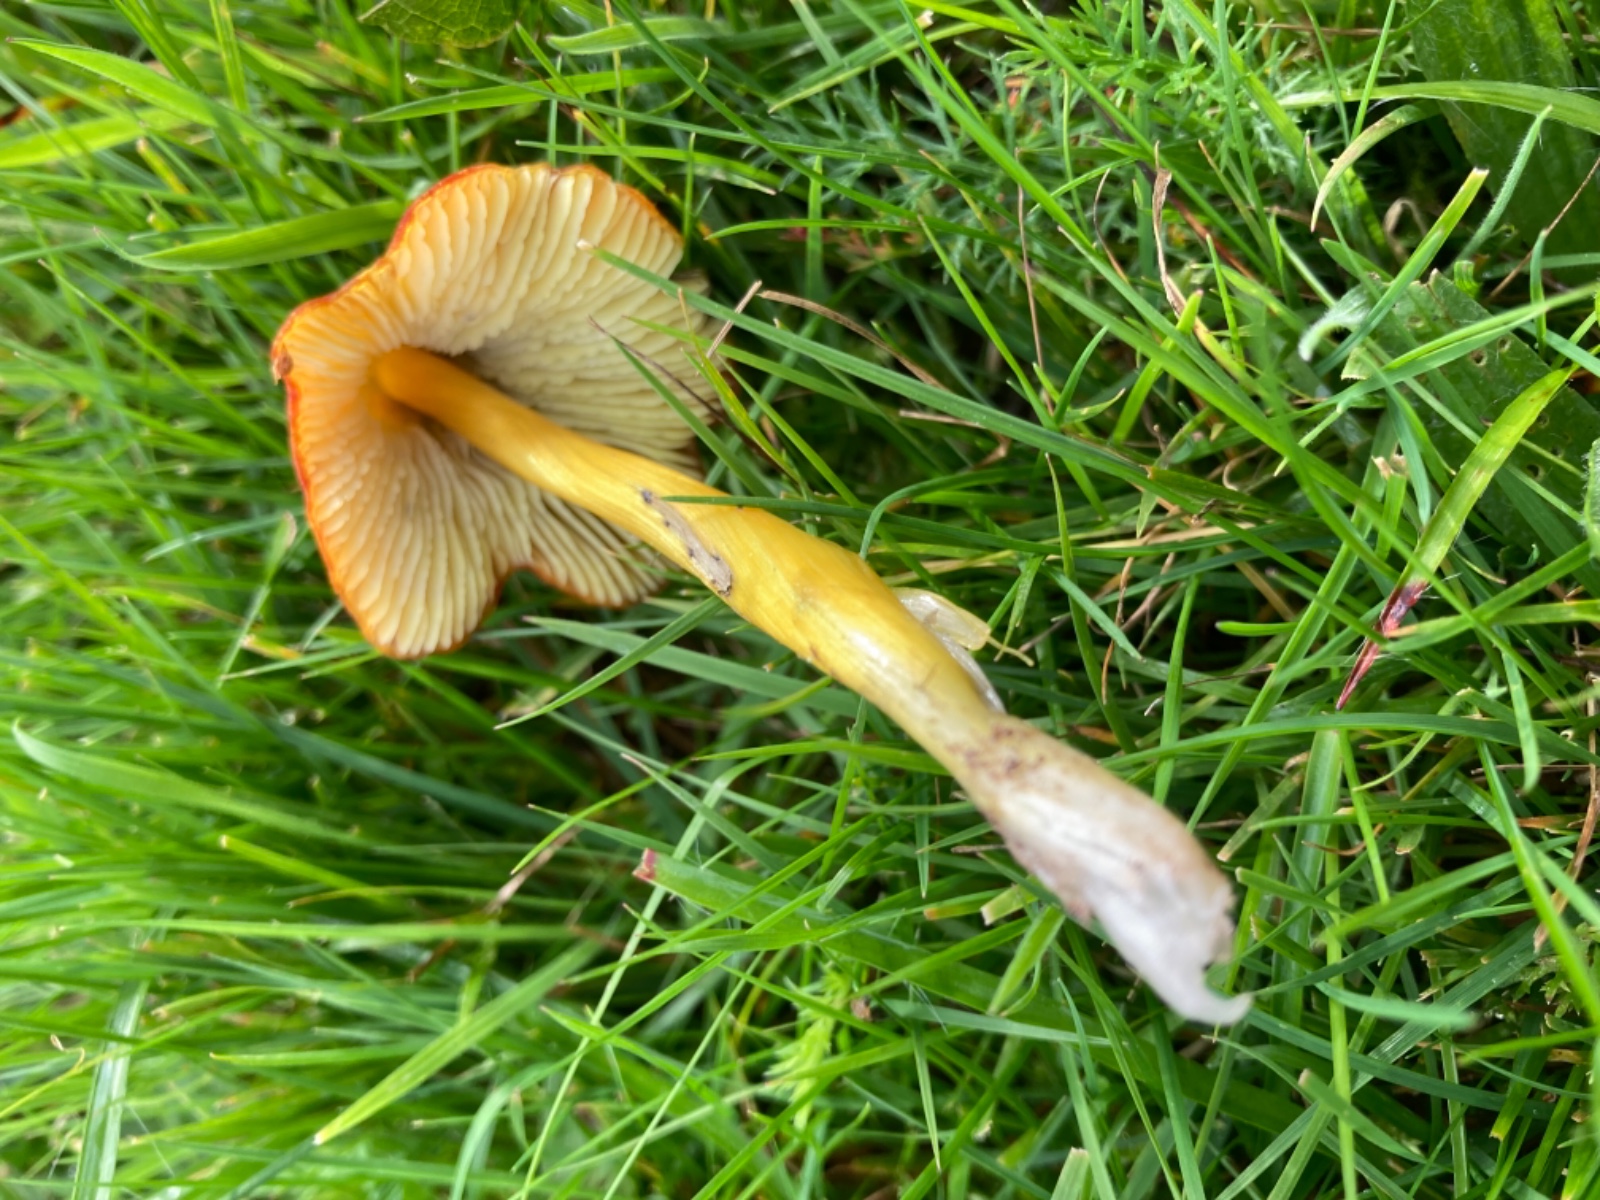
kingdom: Fungi
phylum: Basidiomycota
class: Agaricomycetes
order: Agaricales
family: Hygrophoraceae
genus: Hygrocybe
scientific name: Hygrocybe conica
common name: kegle-vokshat
